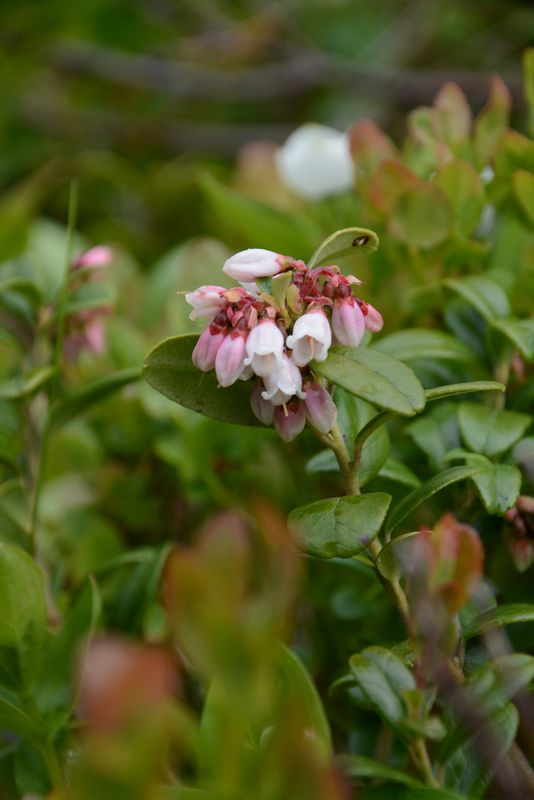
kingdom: Plantae
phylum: Tracheophyta
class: Magnoliopsida
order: Ericales
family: Ericaceae
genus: Vaccinium
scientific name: Vaccinium vitis-idaea
